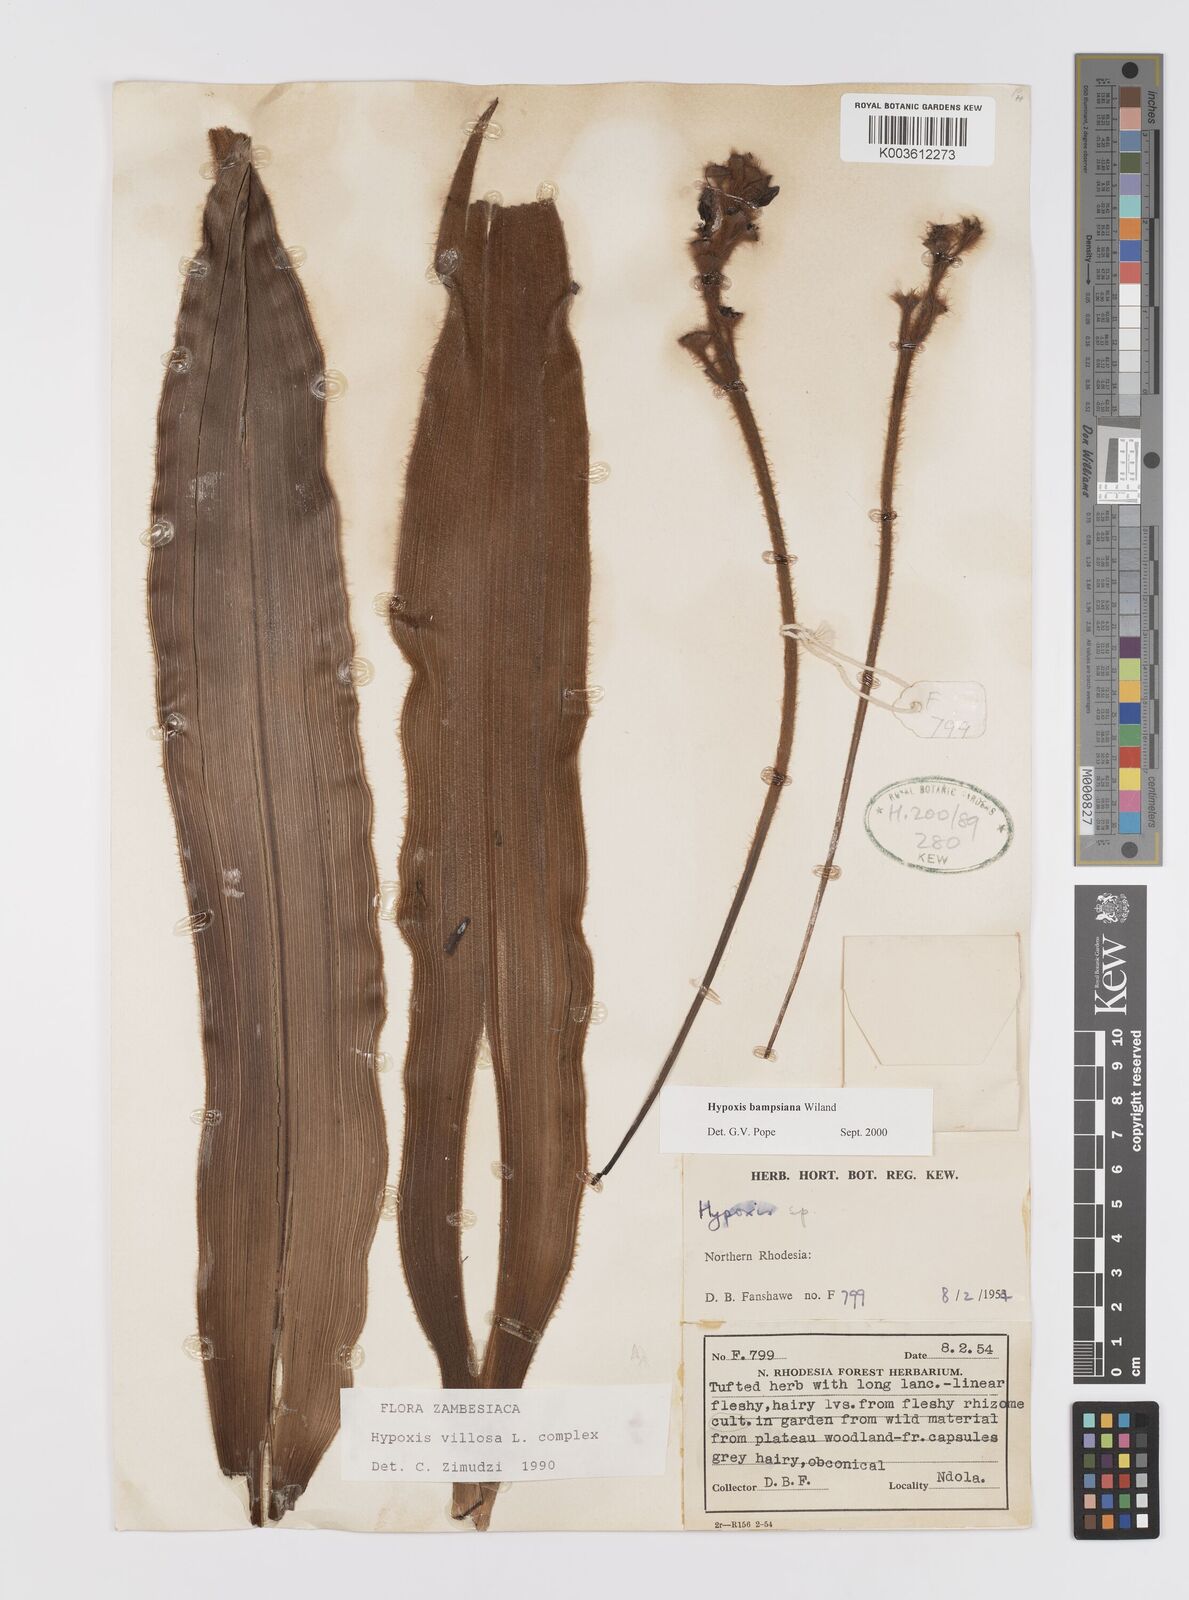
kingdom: Plantae
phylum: Tracheophyta
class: Liliopsida
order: Asparagales
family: Hypoxidaceae
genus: Hypoxis
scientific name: Hypoxis bampsiana
